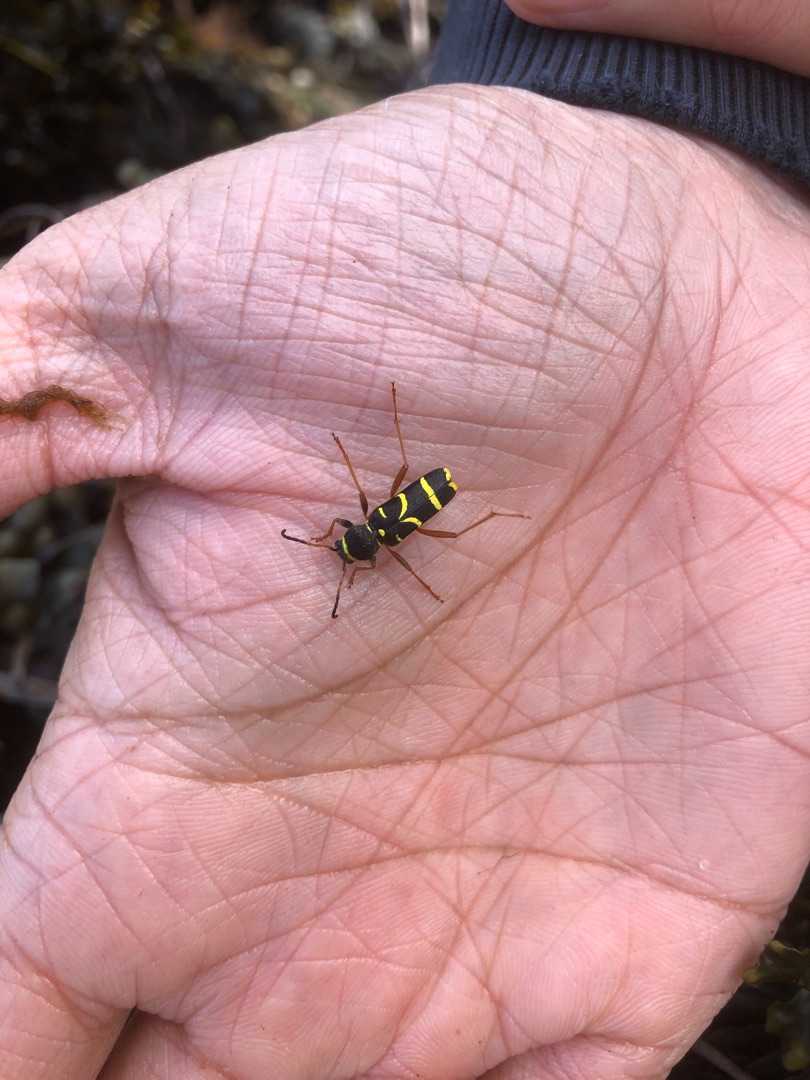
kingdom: Animalia
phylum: Arthropoda
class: Insecta
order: Coleoptera
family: Cerambycidae
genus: Clytus
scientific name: Clytus arietis
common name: Lille hvepsebuk
